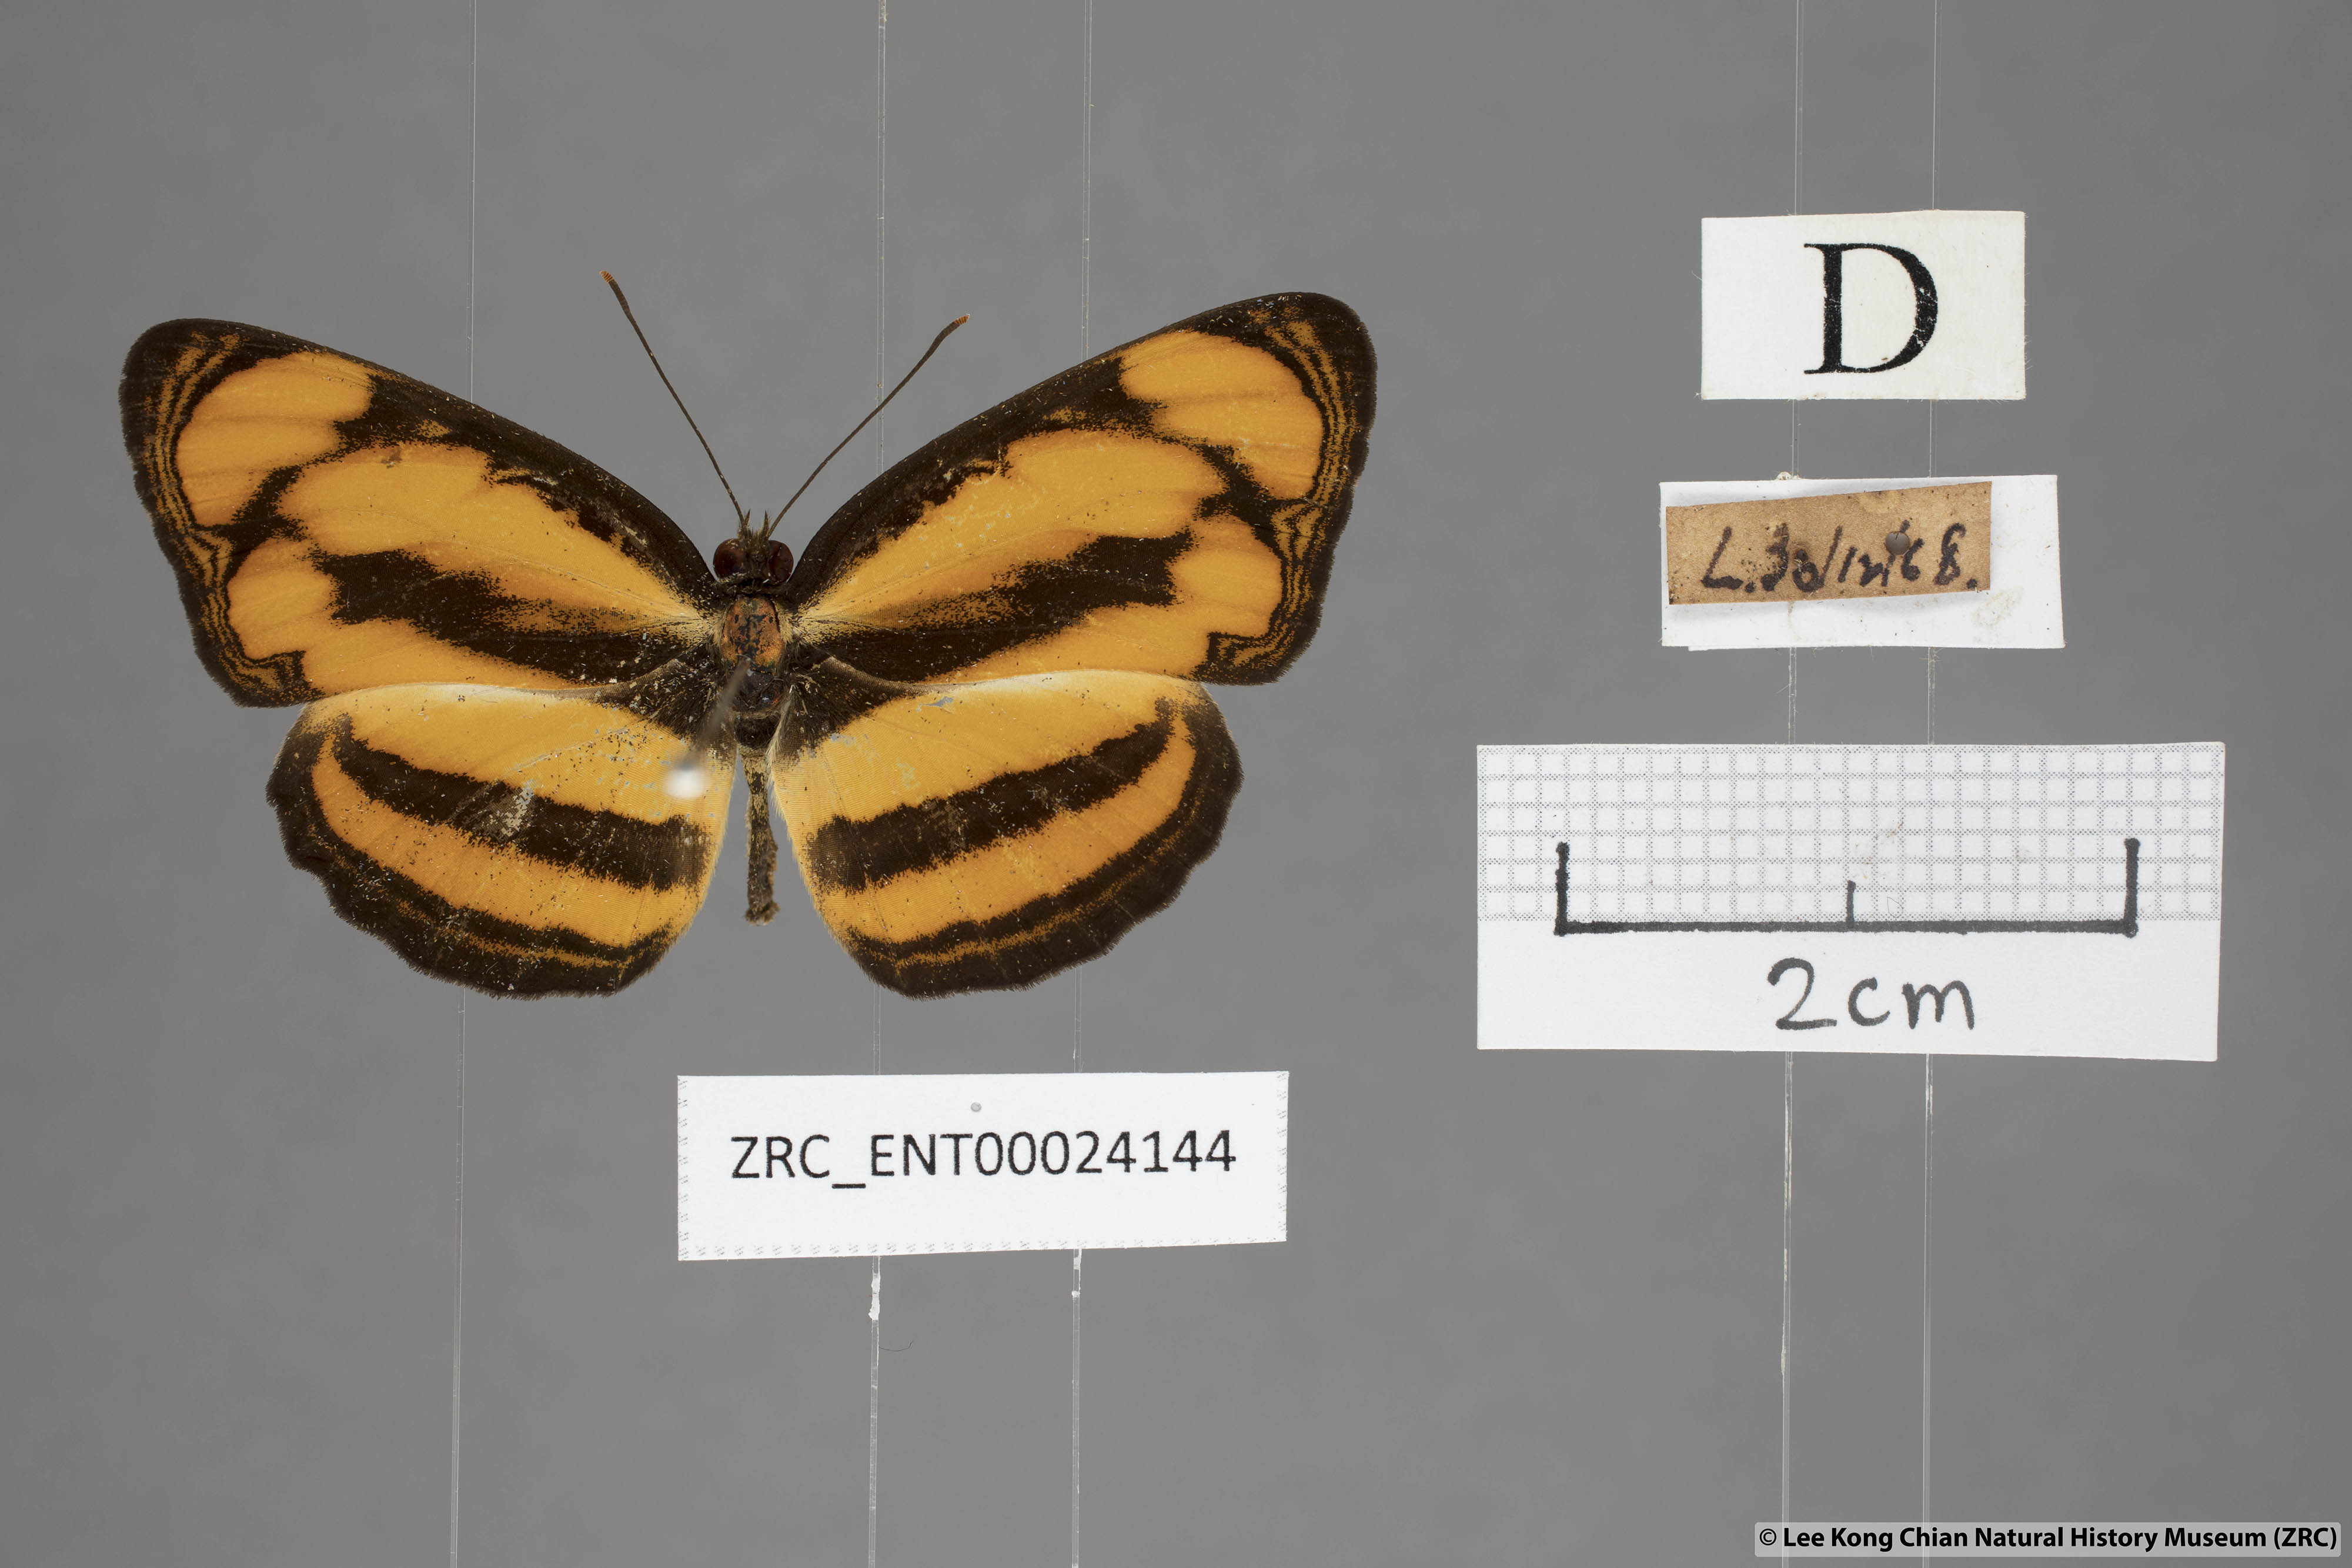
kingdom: Animalia
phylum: Arthropoda
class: Insecta
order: Lepidoptera
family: Nymphalidae
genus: Pantoporia
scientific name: Pantoporia paraka
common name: Perak lascar
